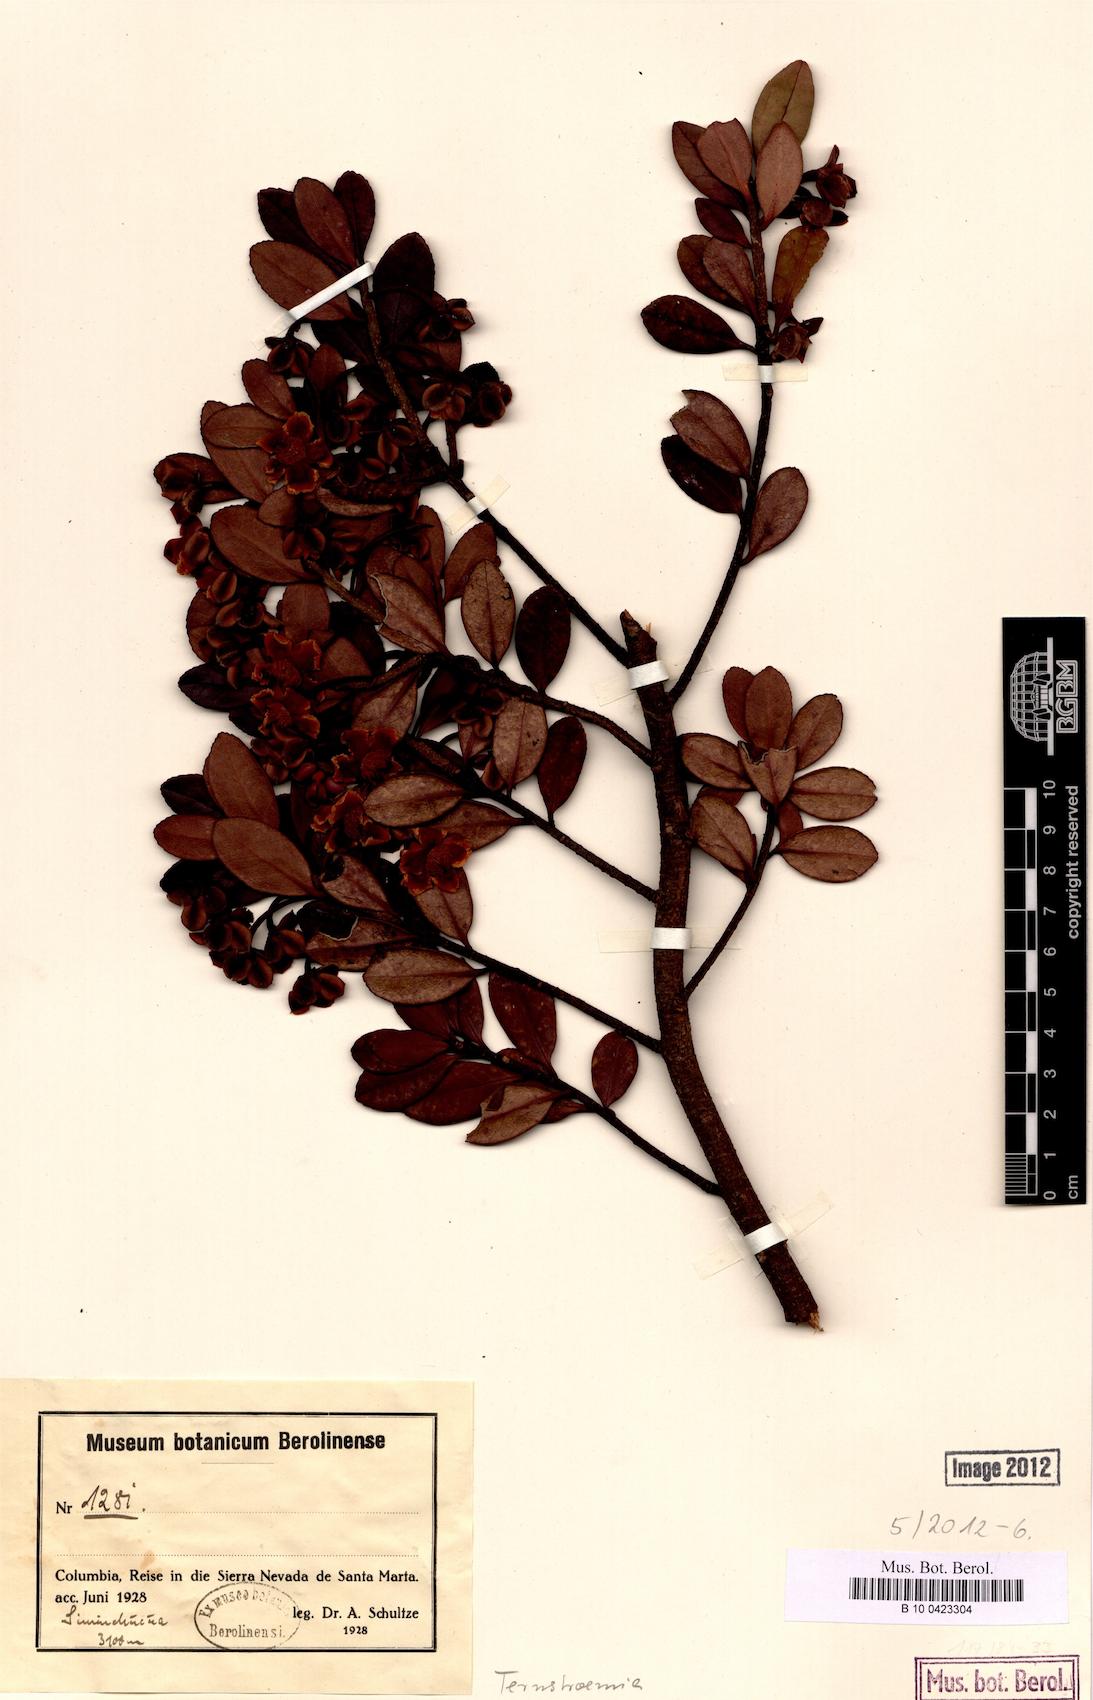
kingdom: Plantae
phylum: Tracheophyta
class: Magnoliopsida
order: Ericales
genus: Ternstroemia
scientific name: Ternstroemia
